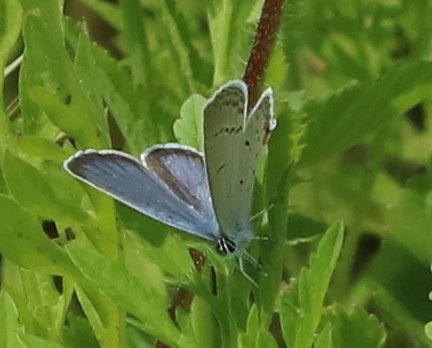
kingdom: Animalia
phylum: Arthropoda
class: Insecta
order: Lepidoptera
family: Lycaenidae
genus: Elkalyce
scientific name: Elkalyce comyntas
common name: Eastern Tailed-Blue
